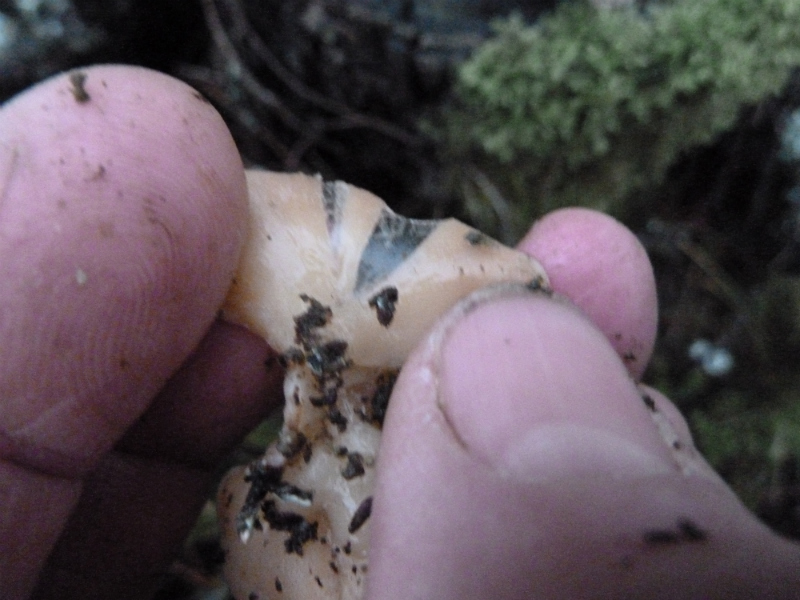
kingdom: Fungi
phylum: Basidiomycota
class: Agaricomycetes
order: Agaricales
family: Mycenaceae
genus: Panellus
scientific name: Panellus mitis
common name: mild epaulethat
